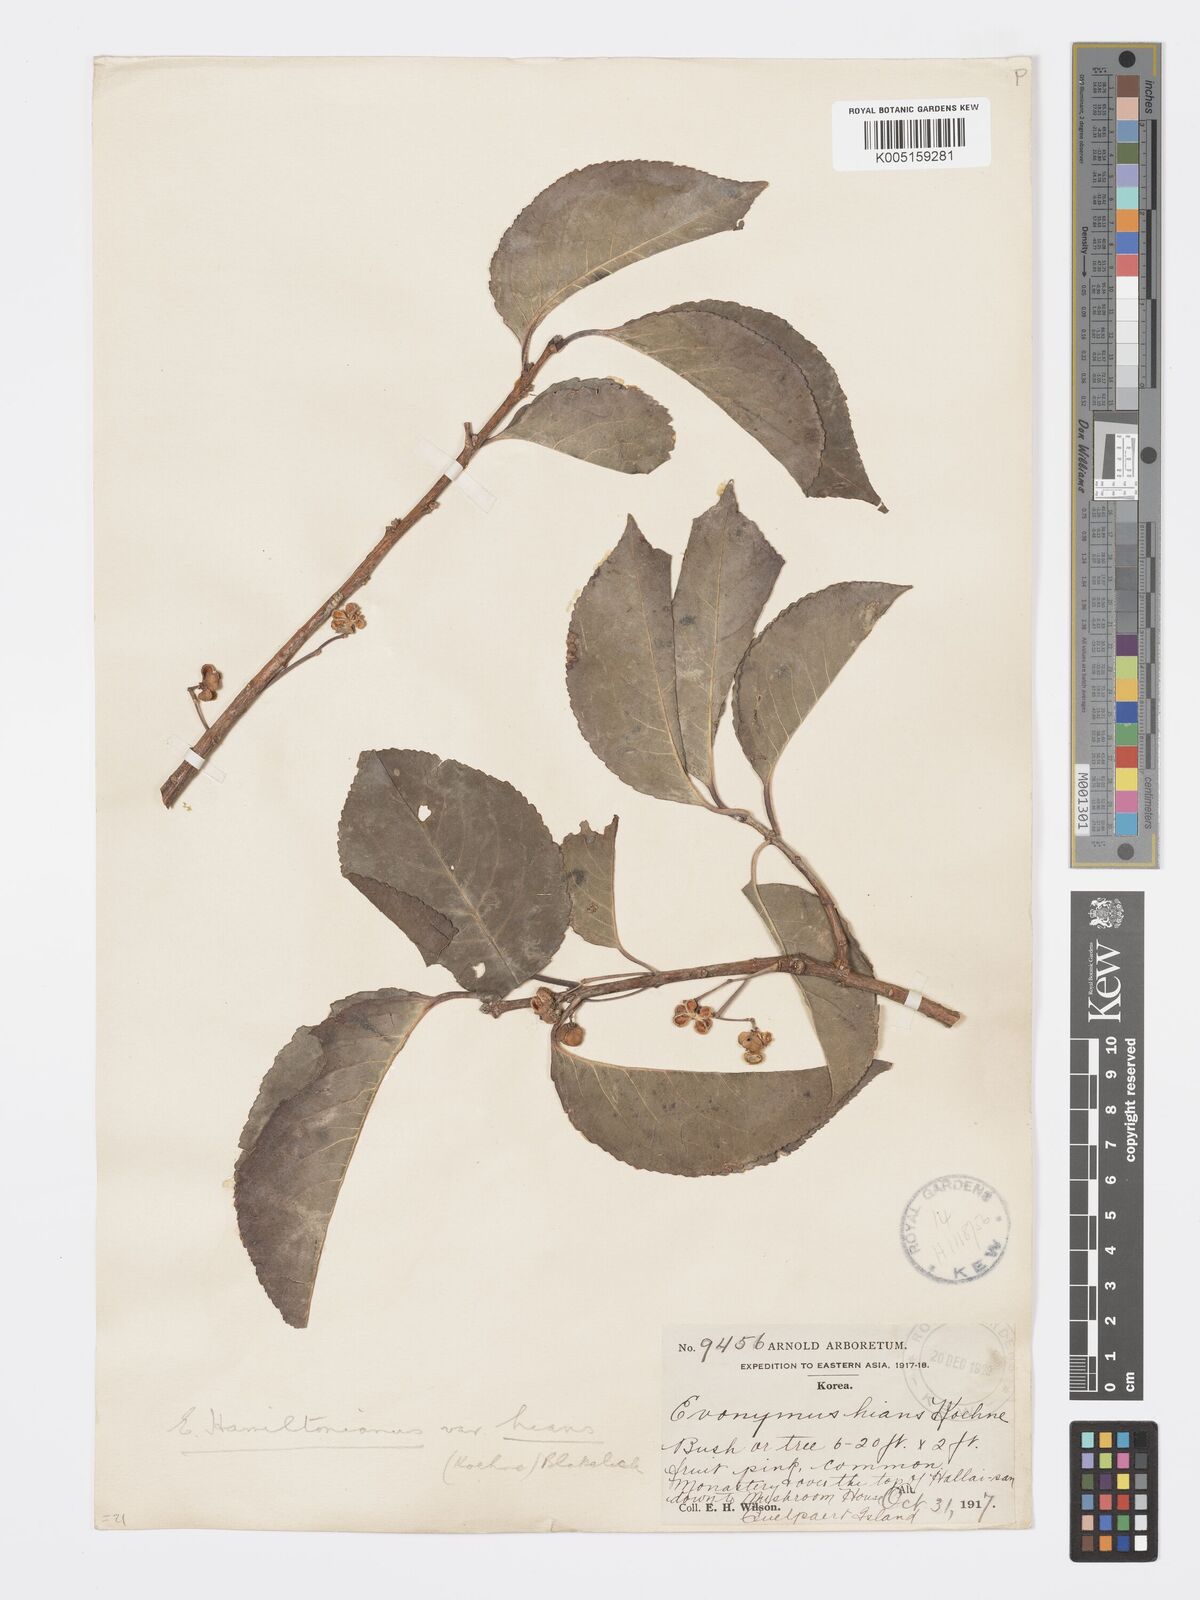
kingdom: Plantae
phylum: Tracheophyta
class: Magnoliopsida
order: Celastrales
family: Celastraceae
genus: Euonymus
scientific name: Euonymus hamiltonianus
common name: Hamilton's spindletree
